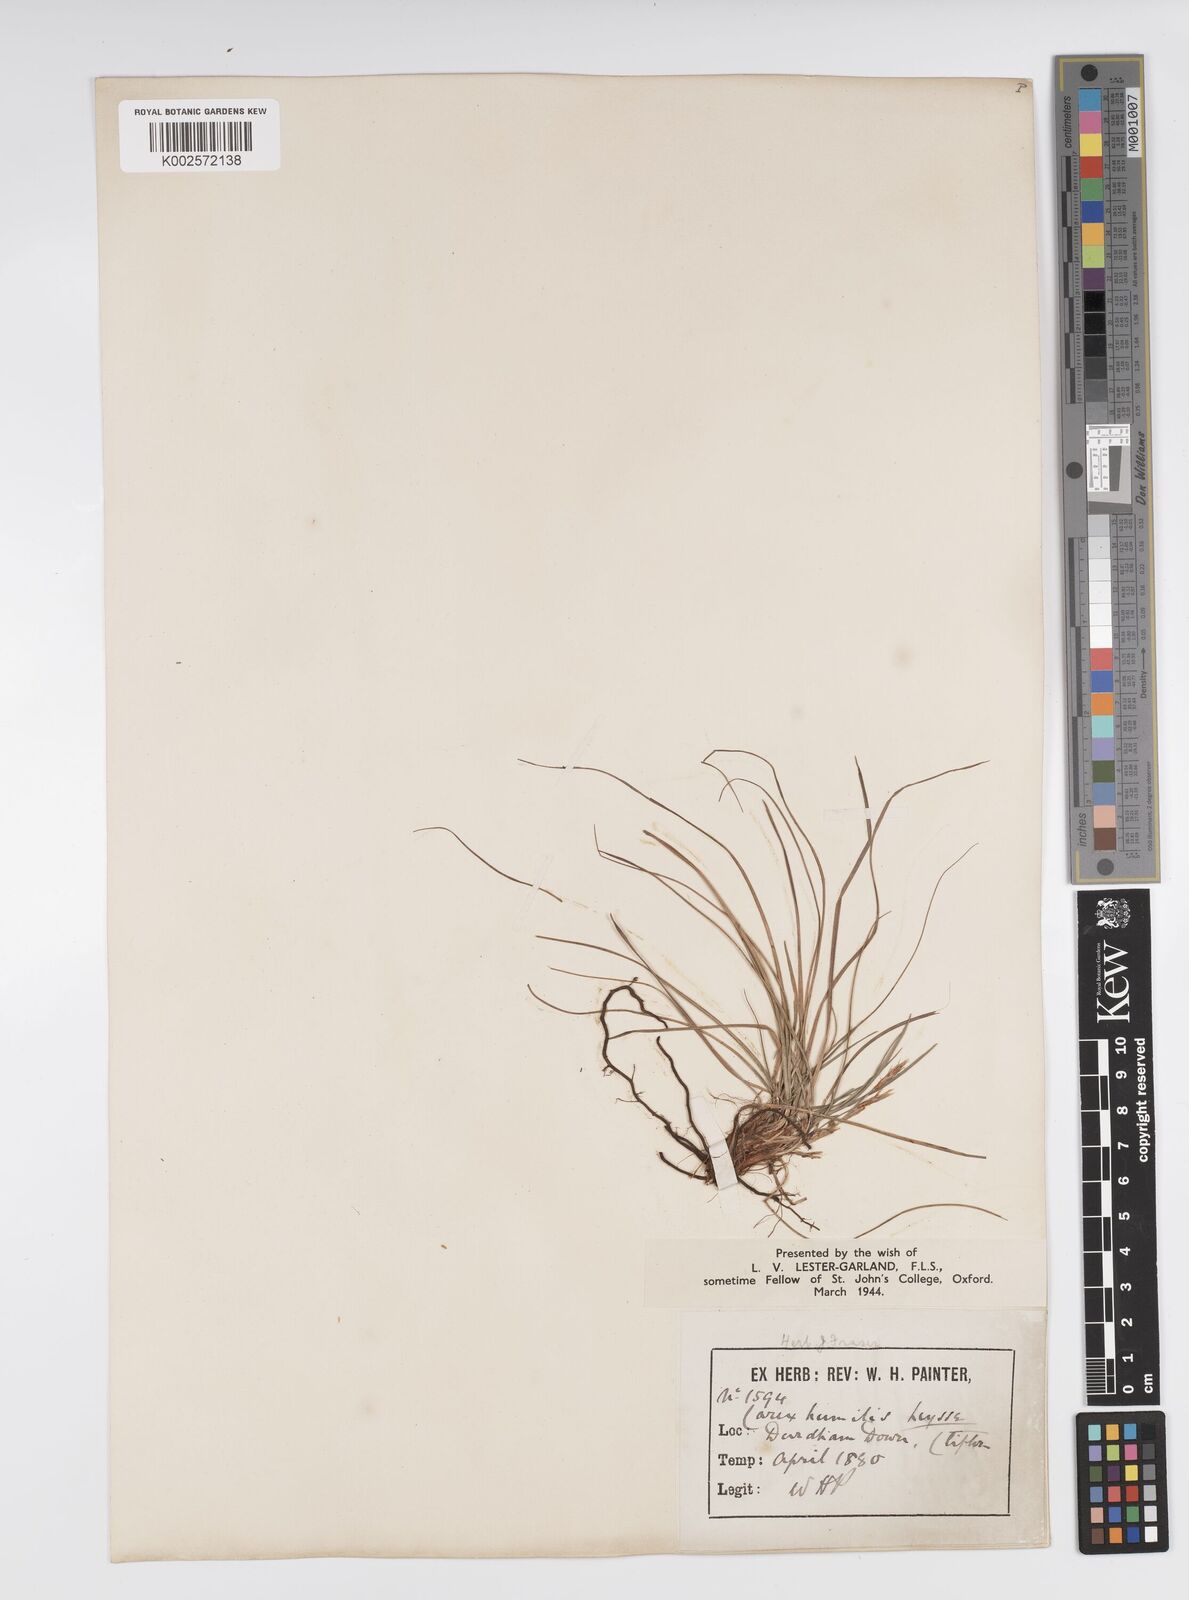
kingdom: Plantae
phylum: Tracheophyta
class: Liliopsida
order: Poales
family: Cyperaceae
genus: Carex
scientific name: Carex humilis
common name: Dwarf sedge
